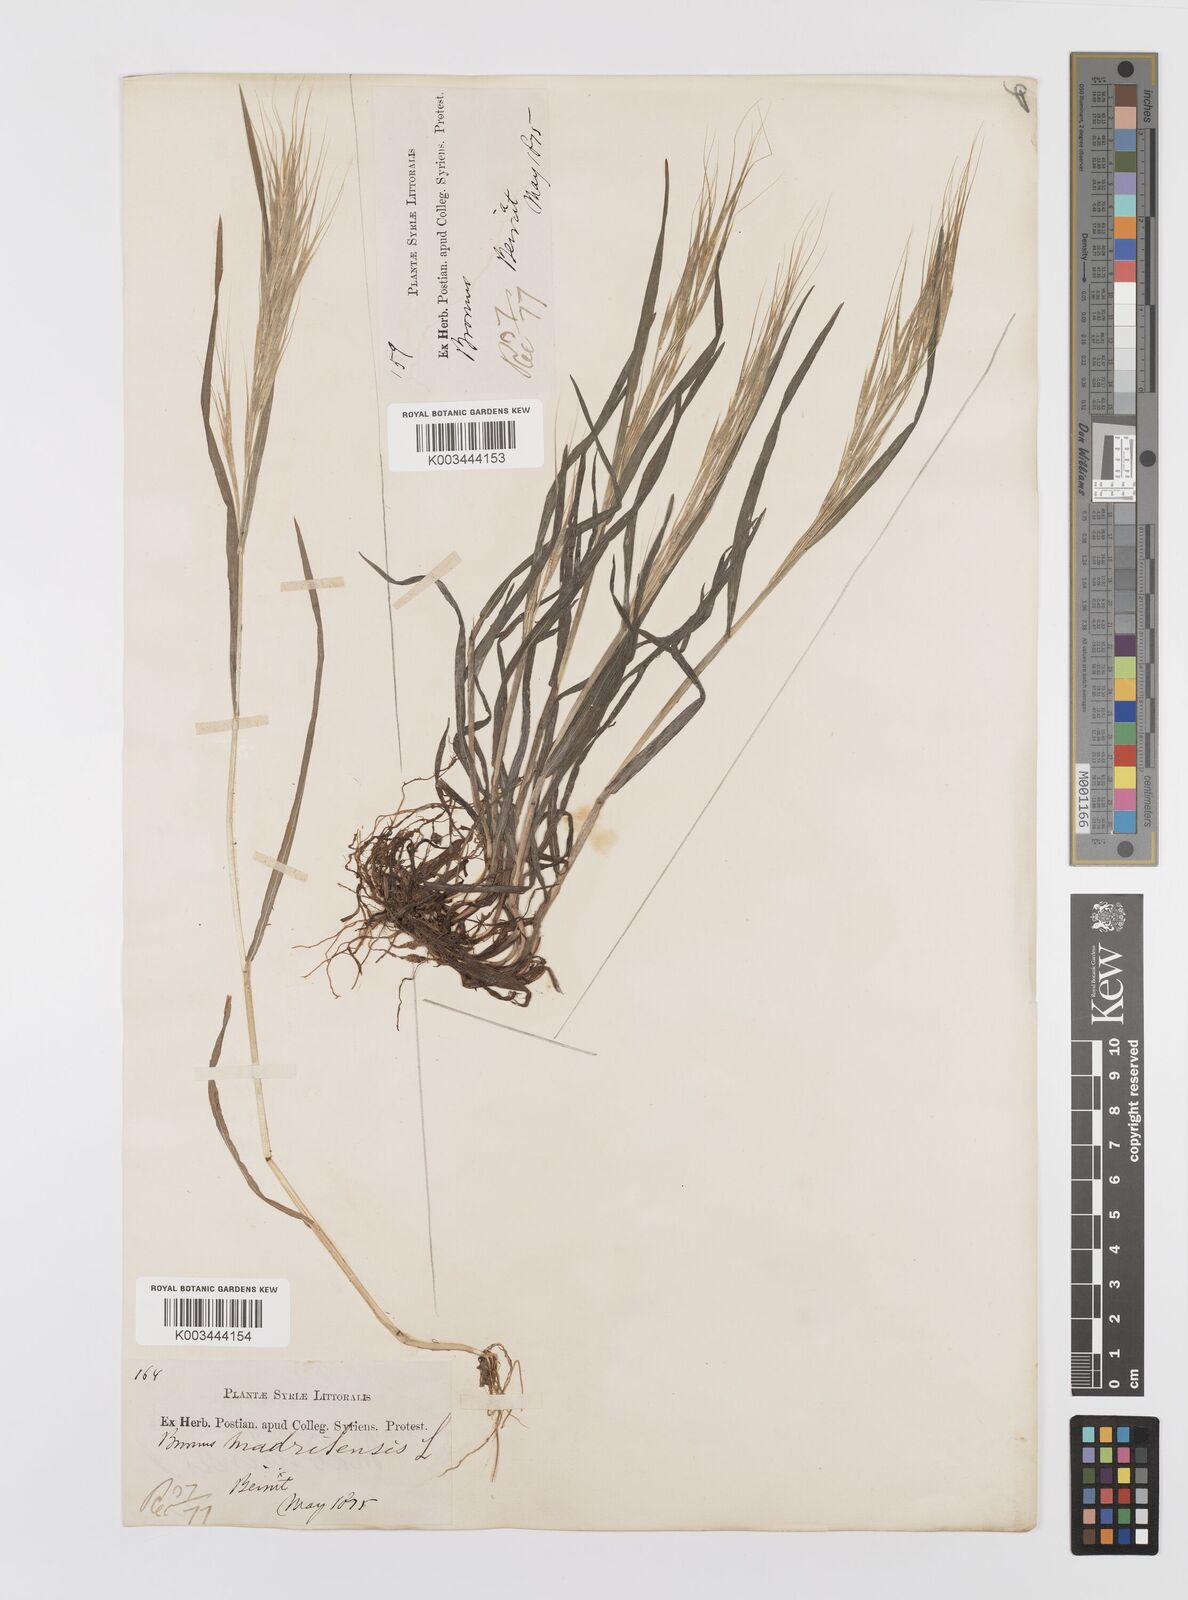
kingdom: Plantae
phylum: Tracheophyta
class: Liliopsida
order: Poales
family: Poaceae
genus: Bromus
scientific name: Bromus madritensis
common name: Compact brome
